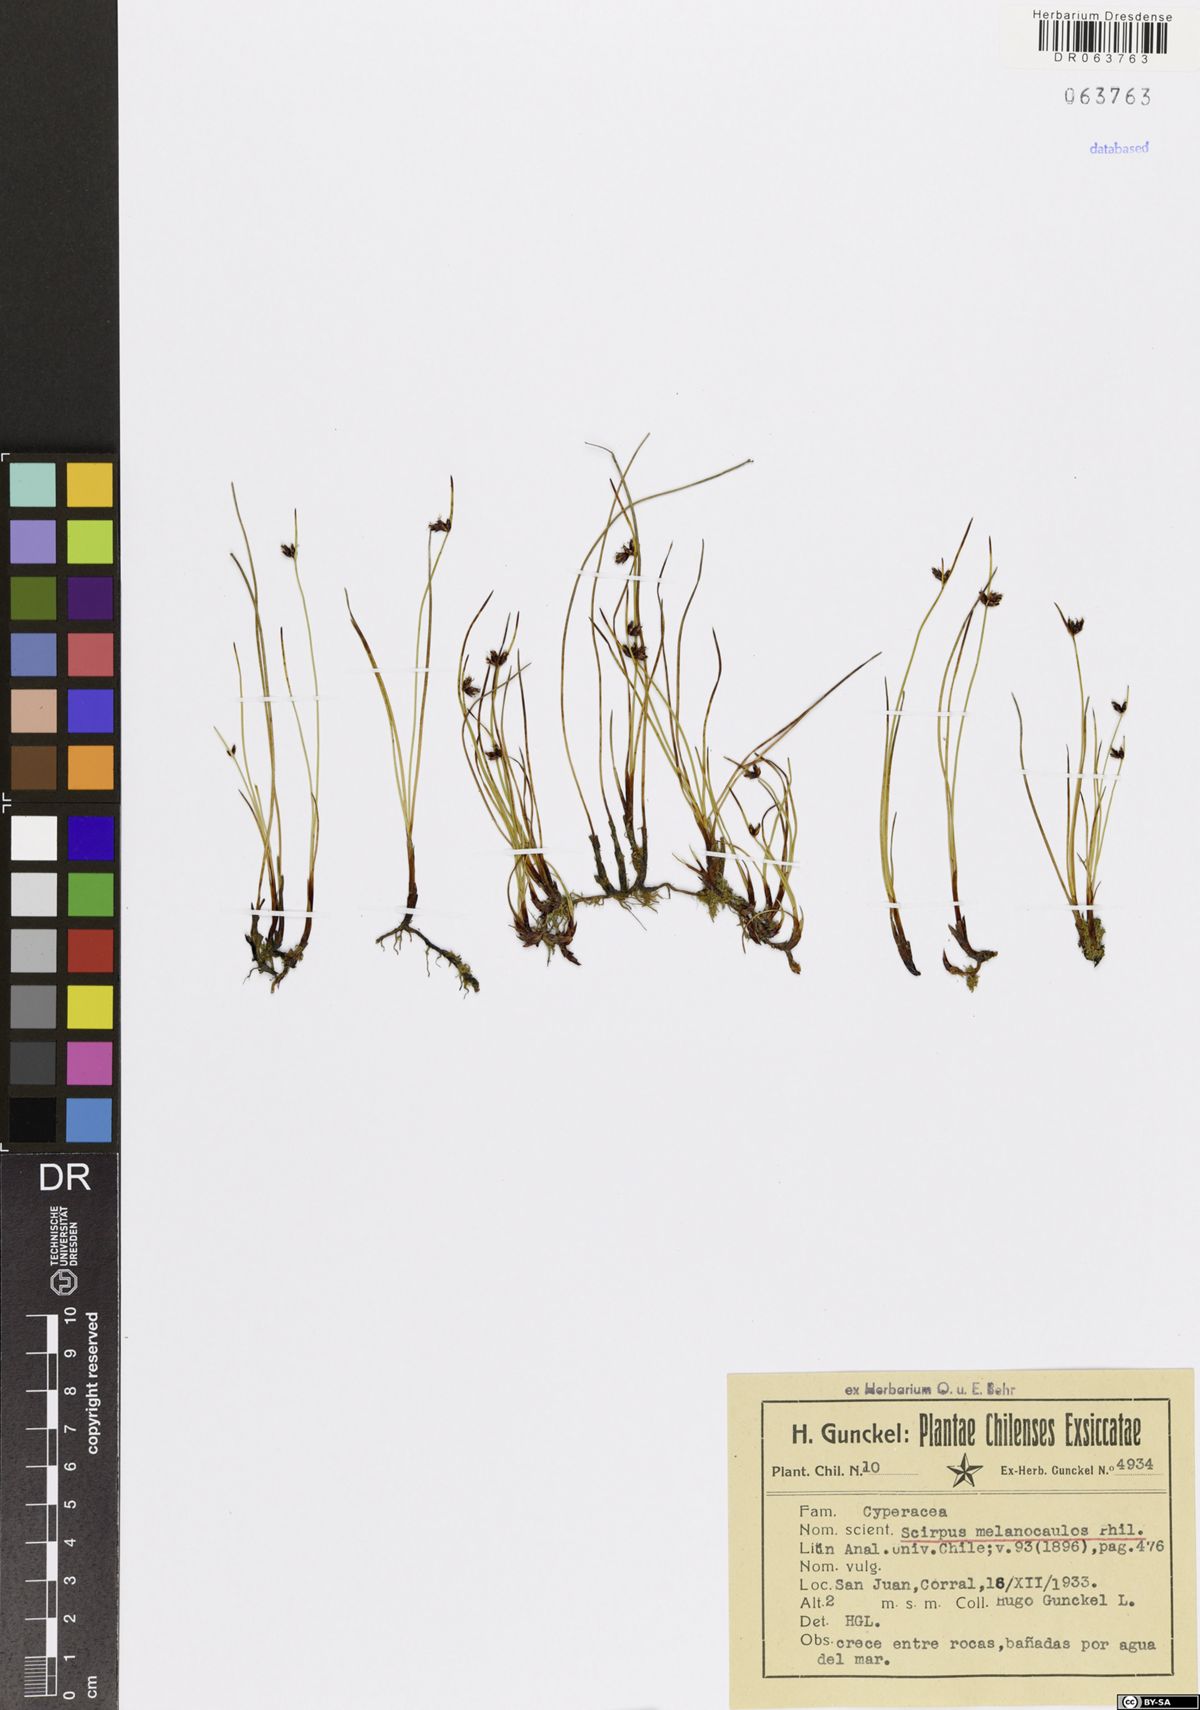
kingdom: Plantae
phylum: Tracheophyta
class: Liliopsida
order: Poales
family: Cyperaceae
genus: Scirpus
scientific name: Scirpus melanocaulos
